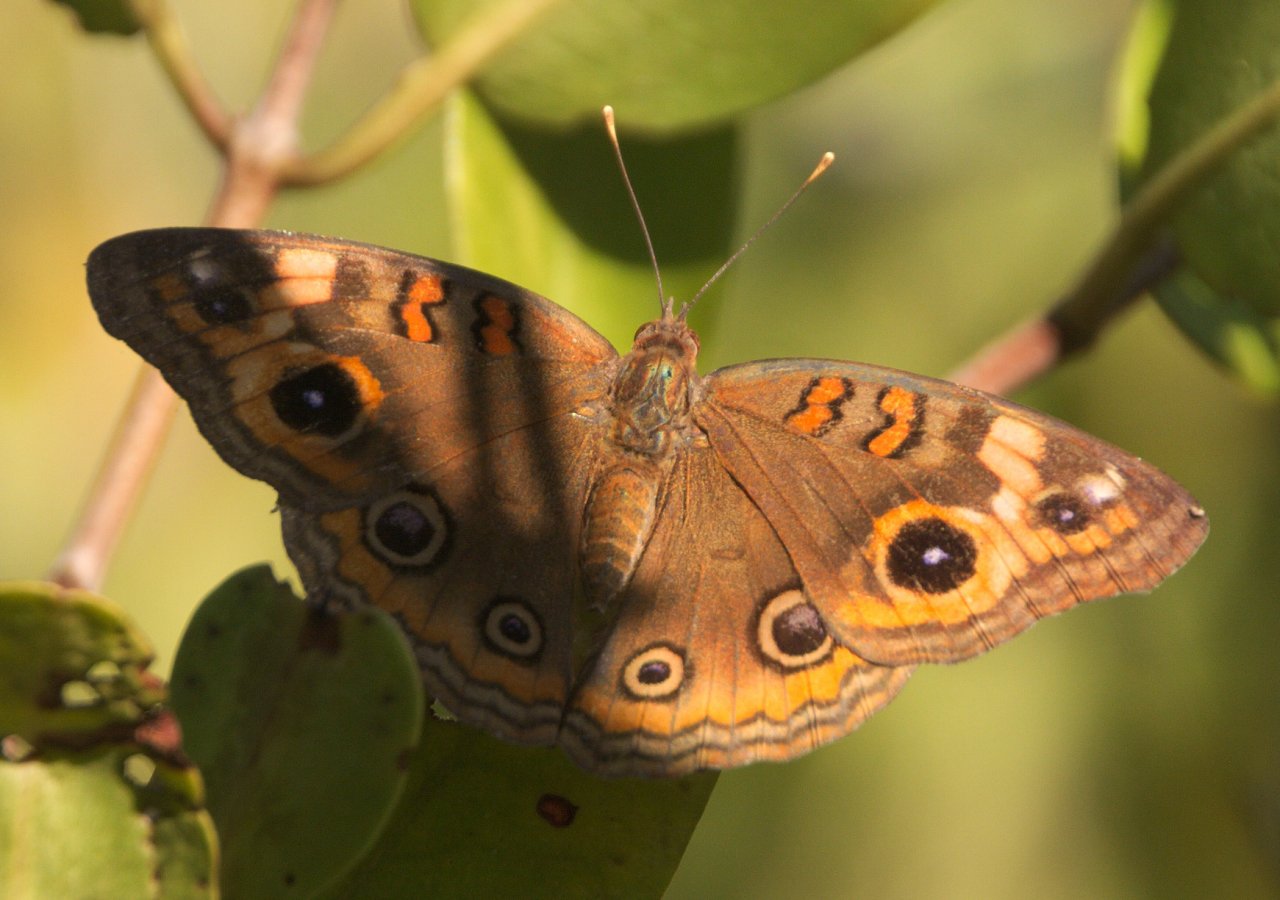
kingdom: Animalia
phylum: Arthropoda
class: Insecta
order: Lepidoptera
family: Nymphalidae
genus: Junonia
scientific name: Junonia evarete
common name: Mangrove Buckeye
